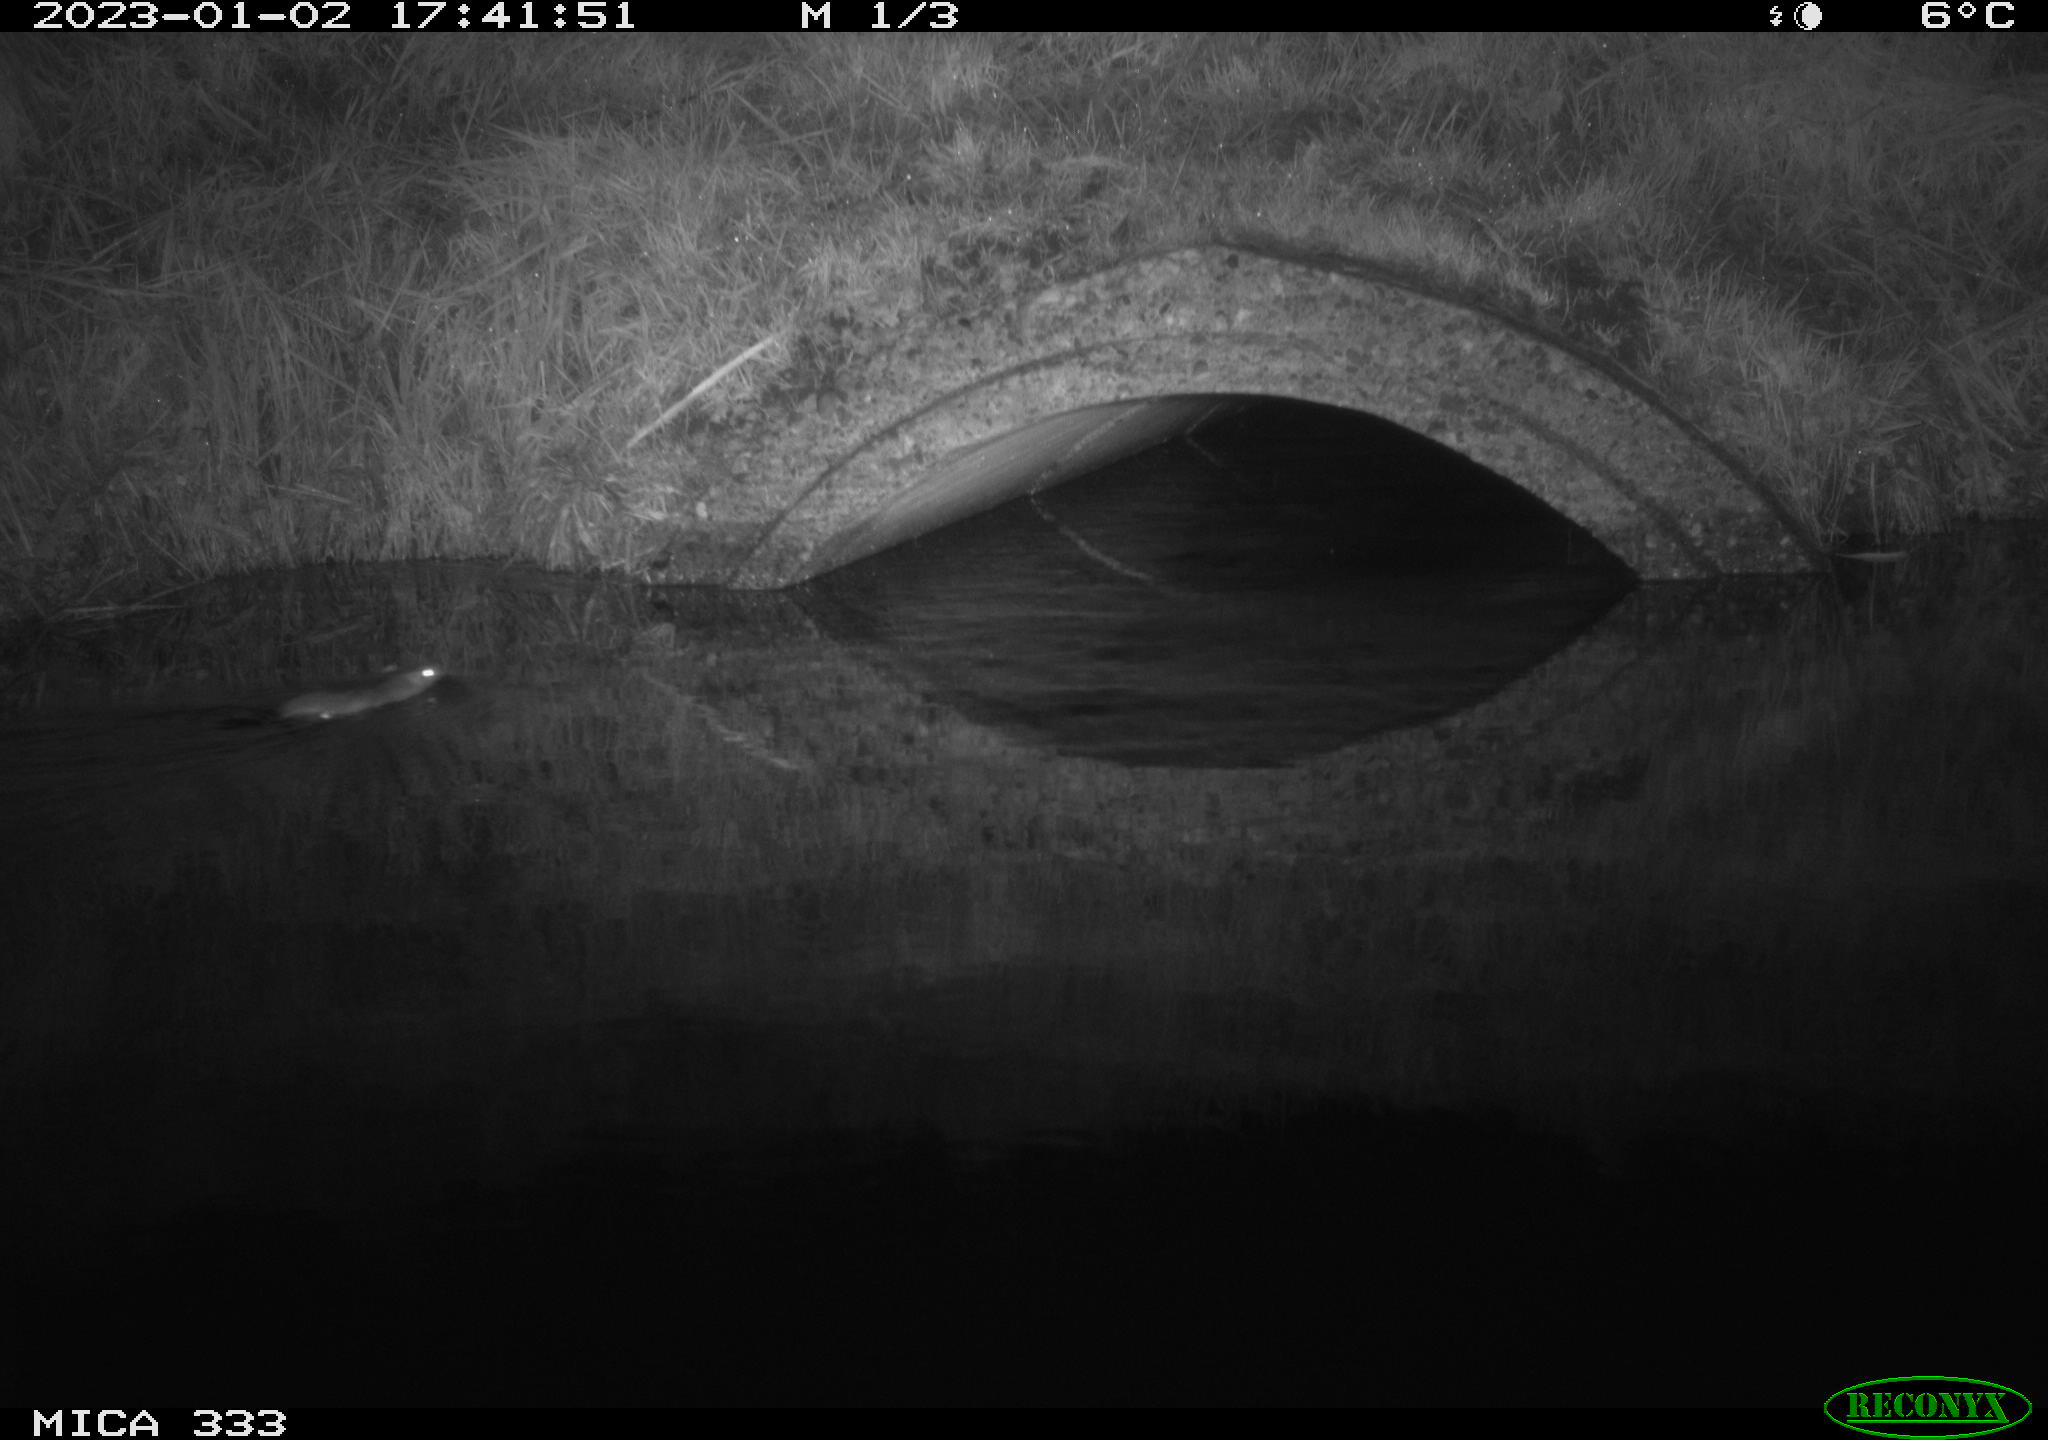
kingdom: Animalia
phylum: Chordata
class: Mammalia
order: Rodentia
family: Muridae
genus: Rattus
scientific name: Rattus norvegicus
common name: Brown rat
